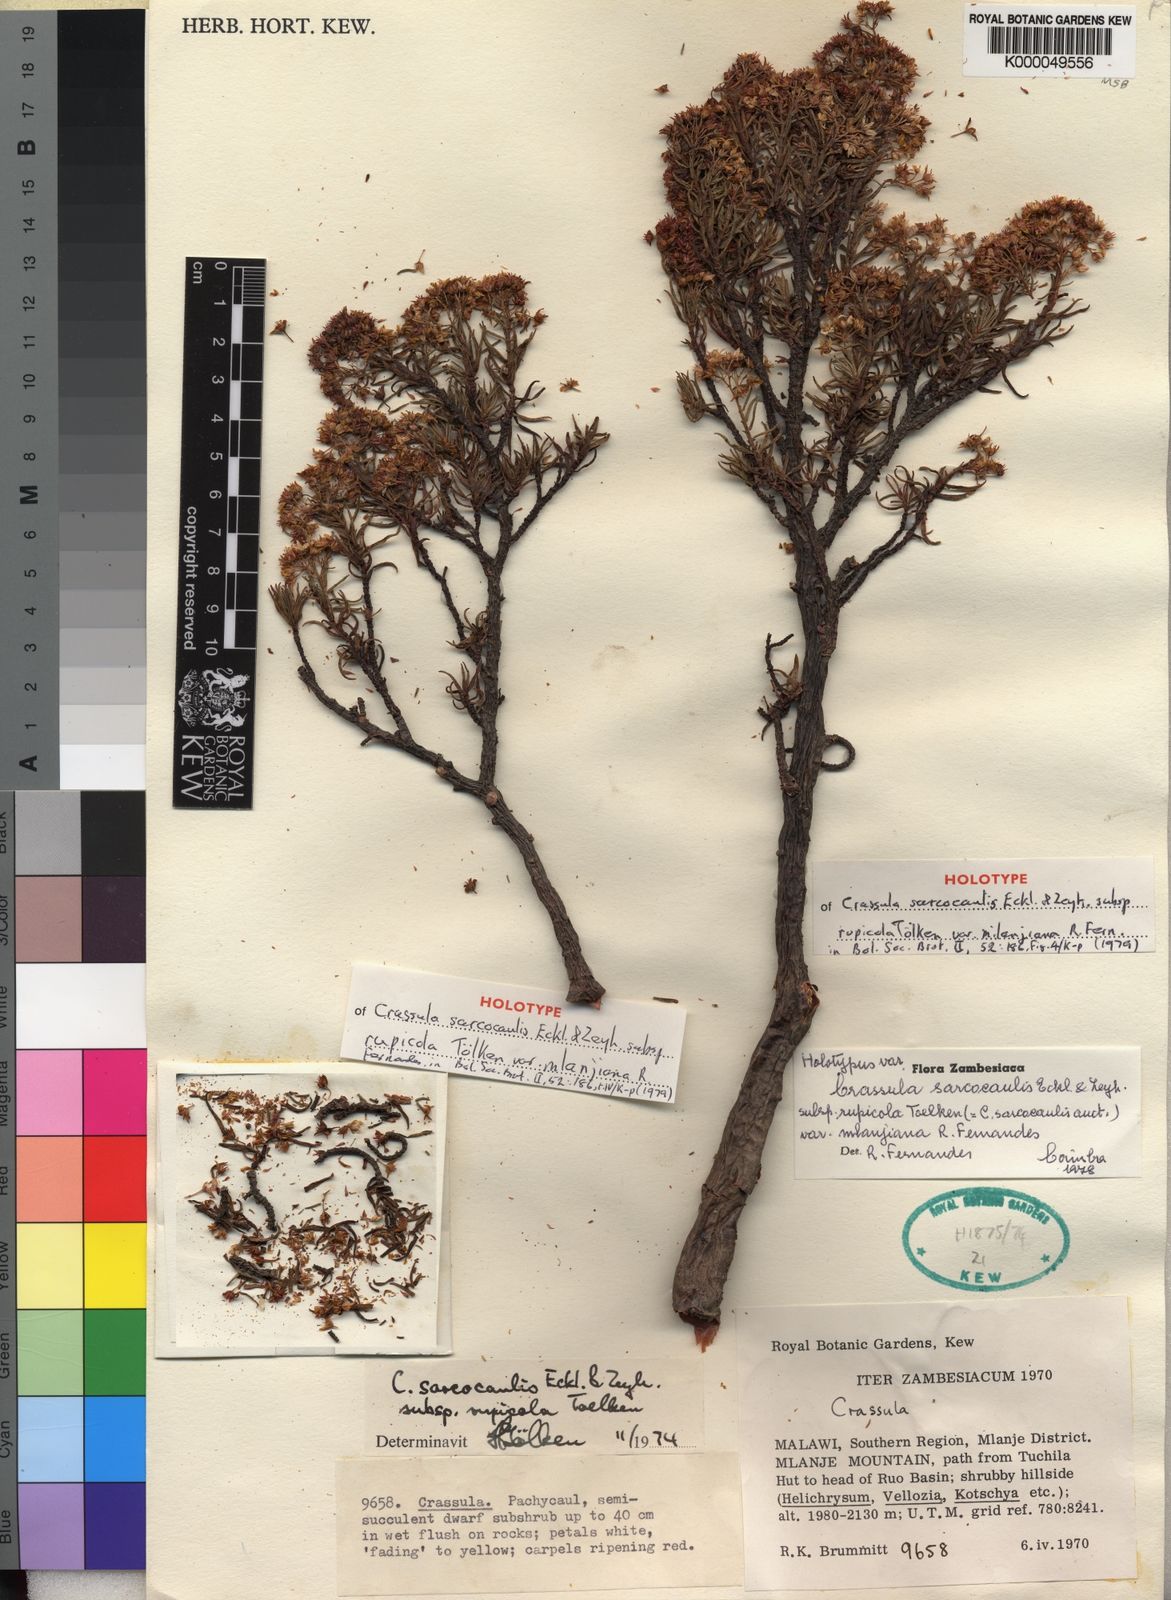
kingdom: Plantae
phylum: Tracheophyta
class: Magnoliopsida
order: Saxifragales
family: Crassulaceae
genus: Crassula
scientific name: Crassula sarcocaulis
